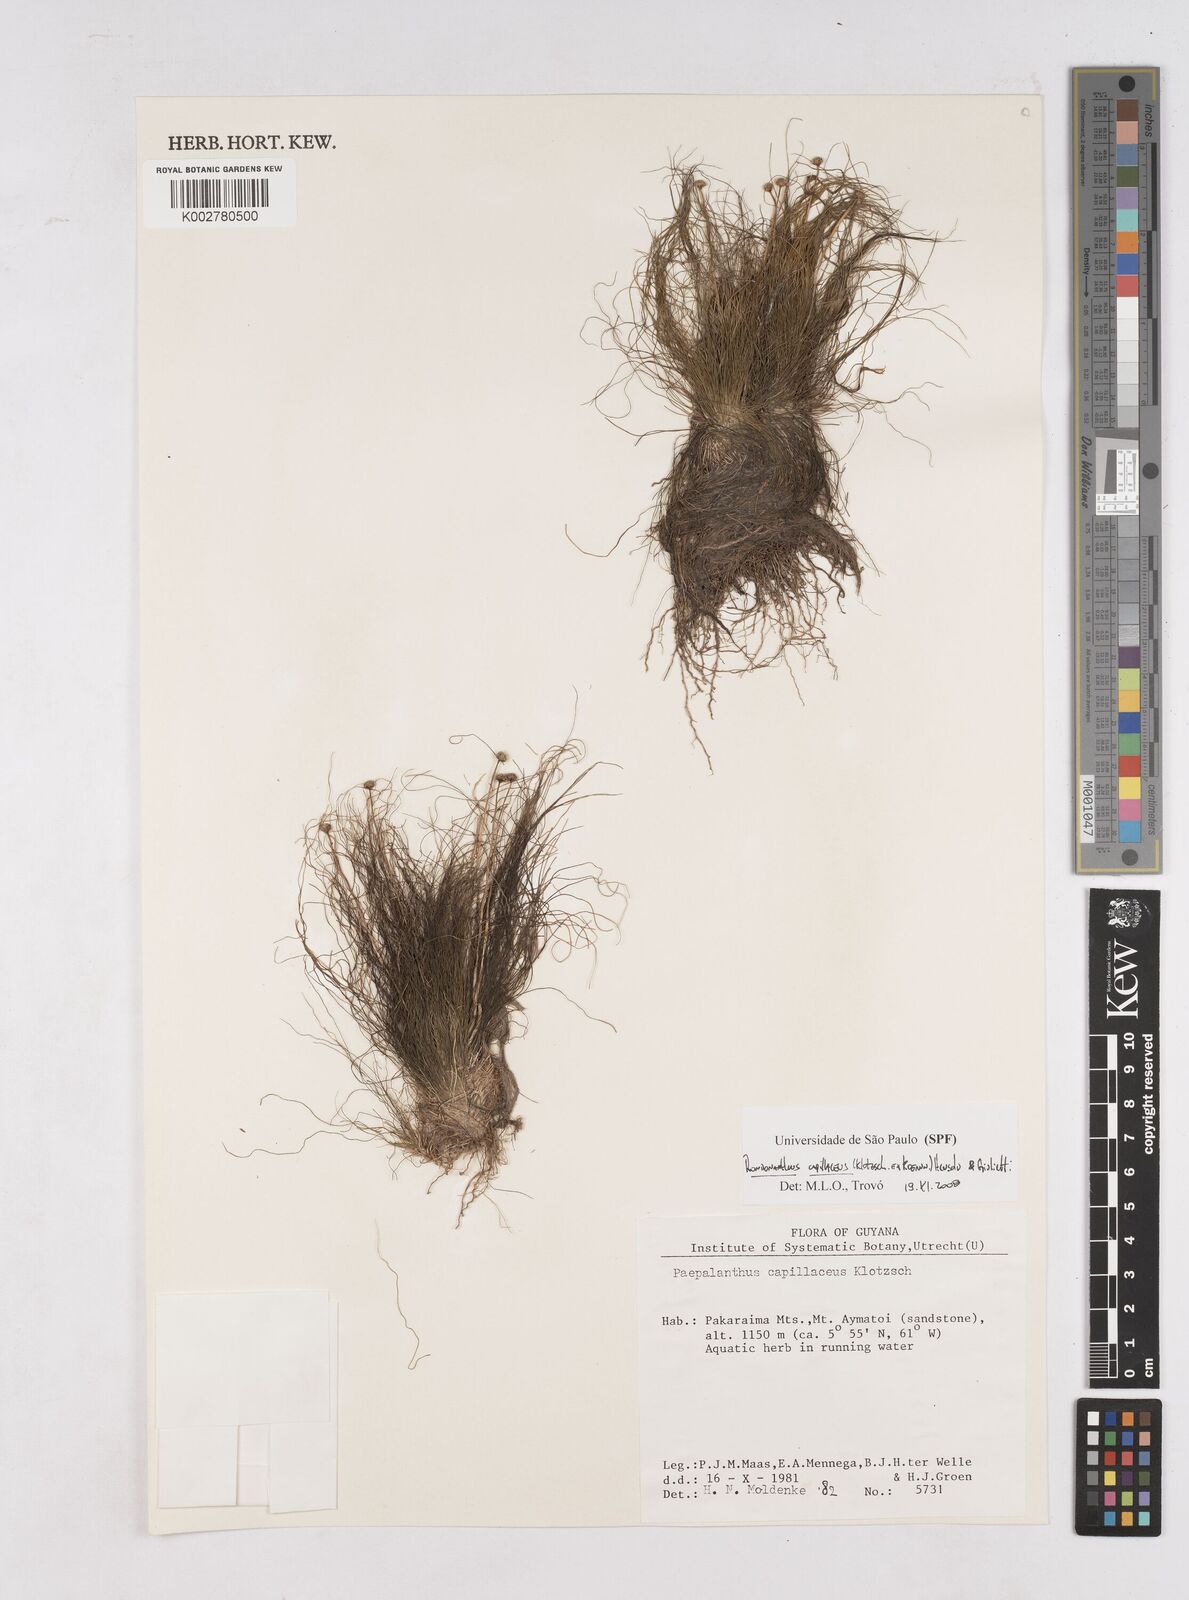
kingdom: Plantae
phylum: Tracheophyta
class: Liliopsida
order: Poales
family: Eriocaulaceae
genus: Rondonanthus
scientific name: Rondonanthus capillaceus
